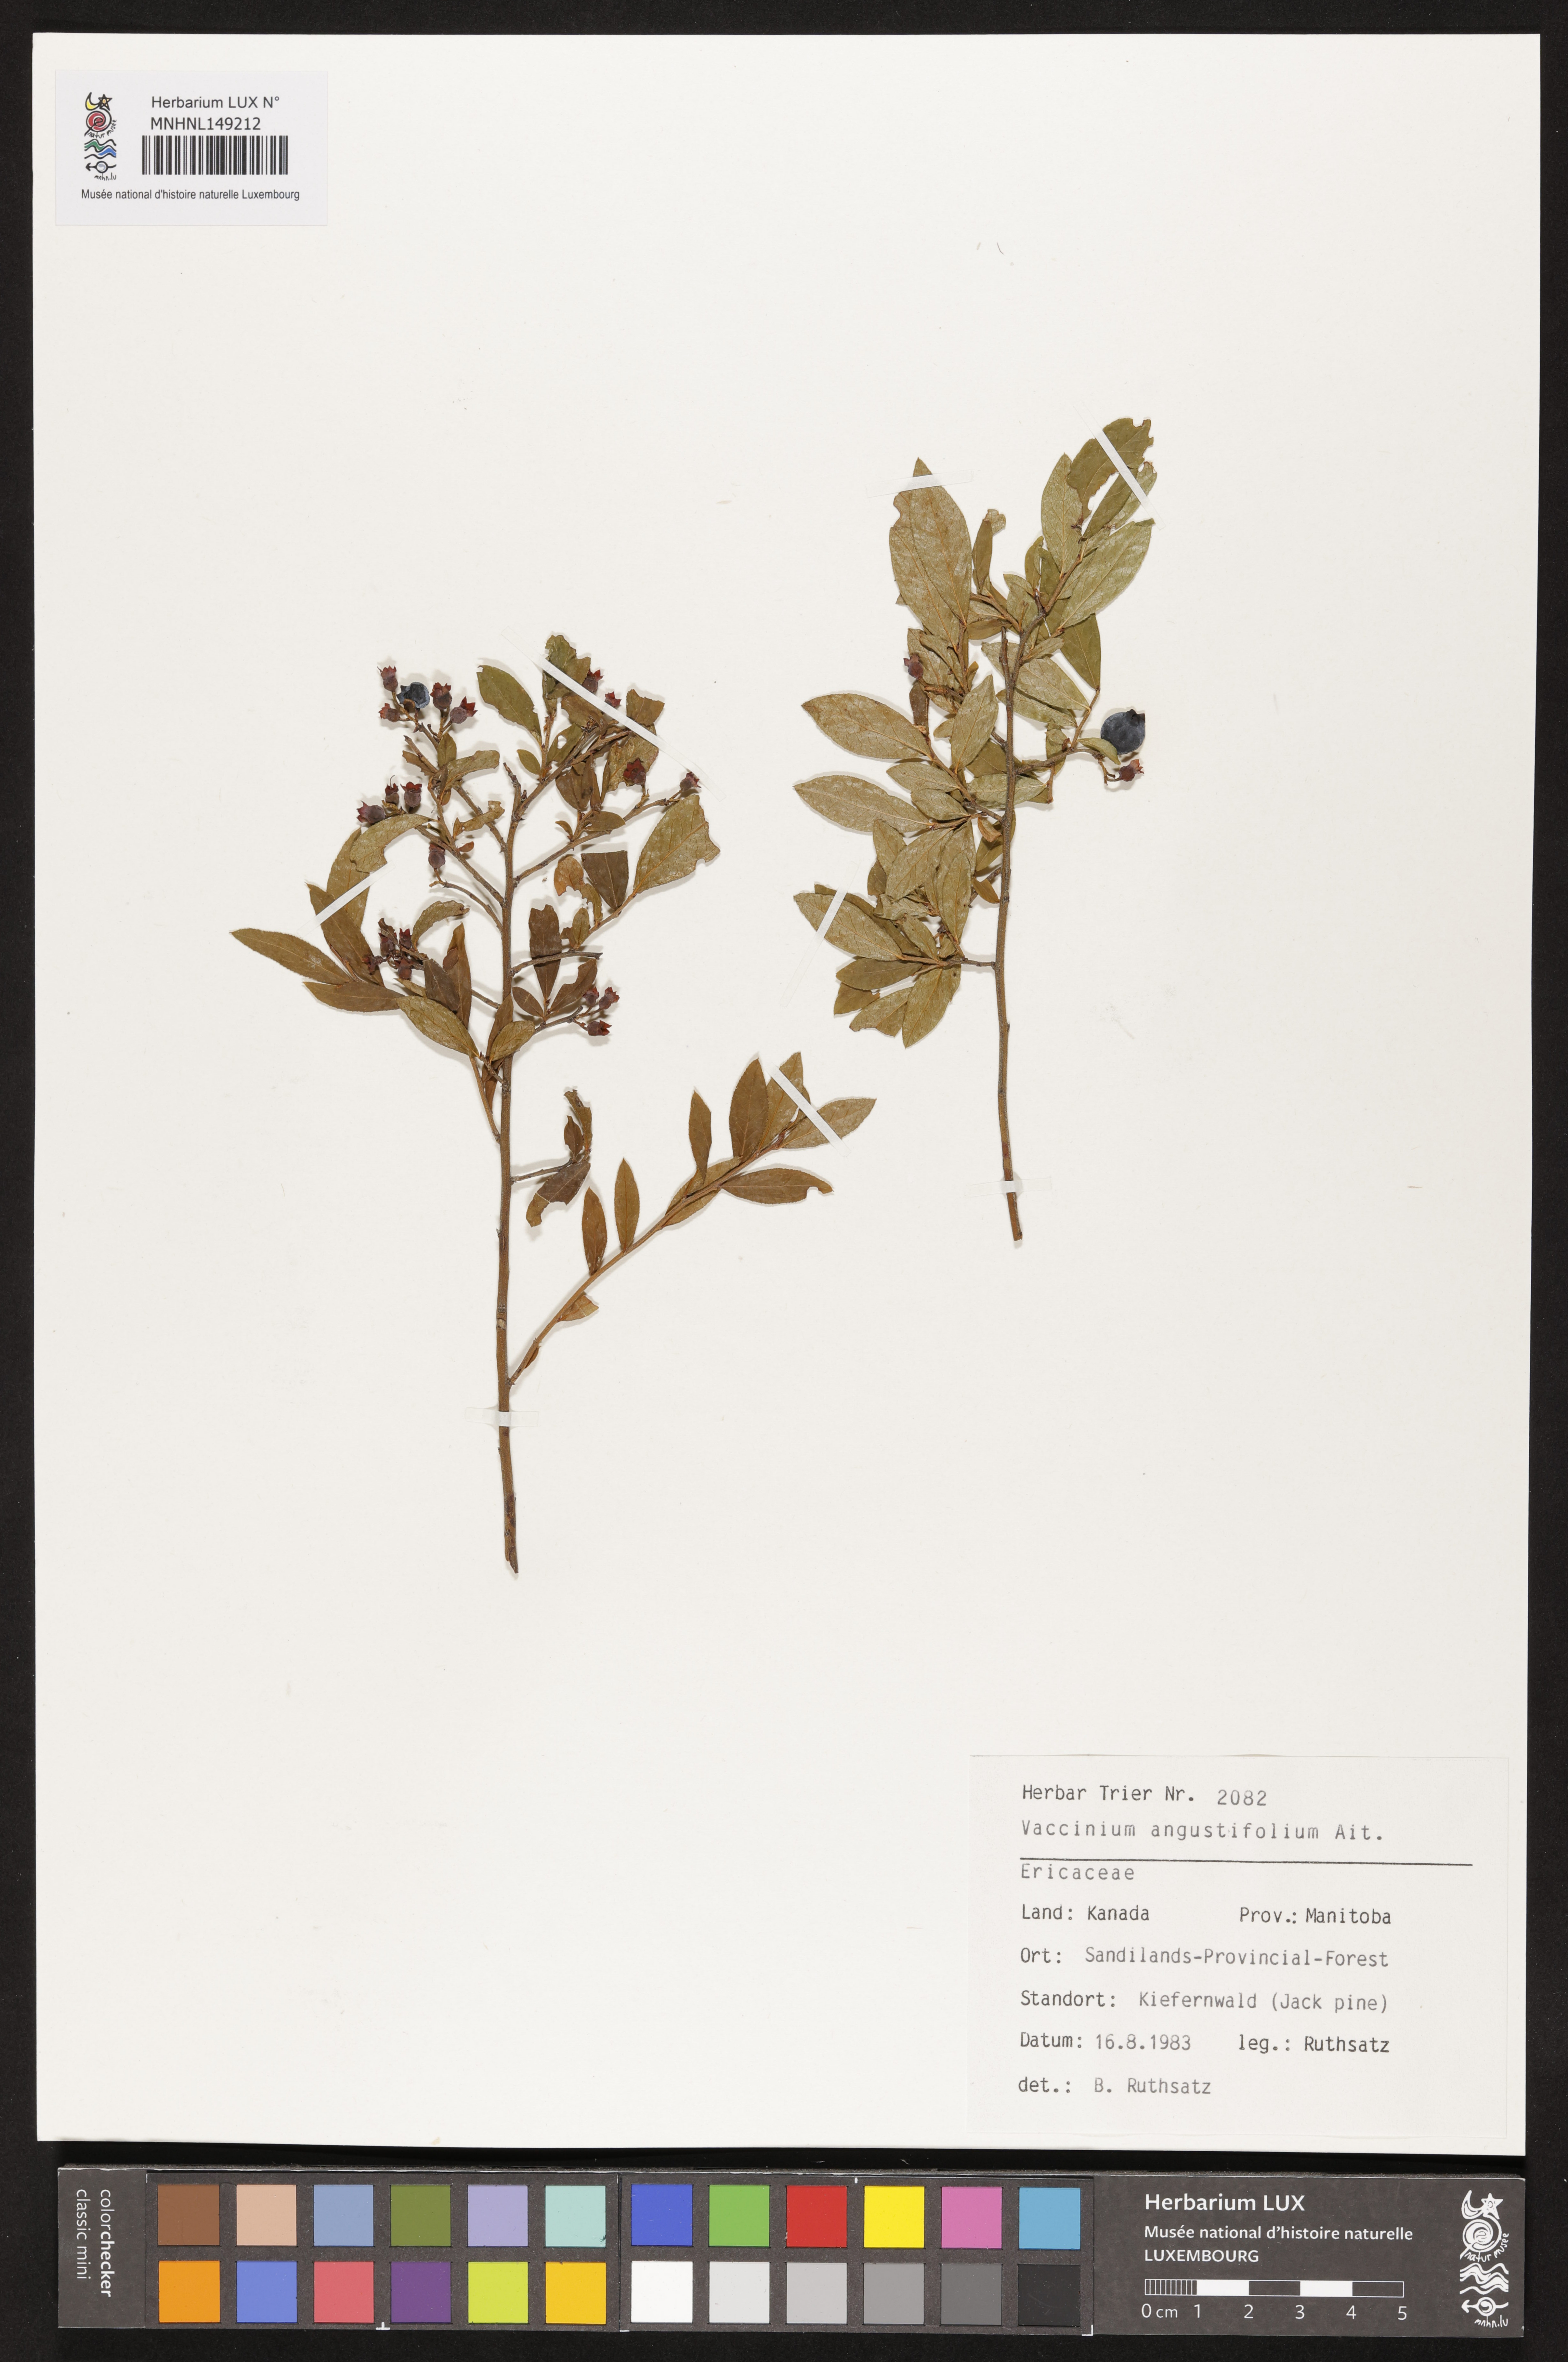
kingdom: Plantae
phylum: Tracheophyta
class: Magnoliopsida
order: Ericales
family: Ericaceae
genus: Vaccinium
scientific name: Vaccinium angustifolium
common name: Early lowbush blueberry
